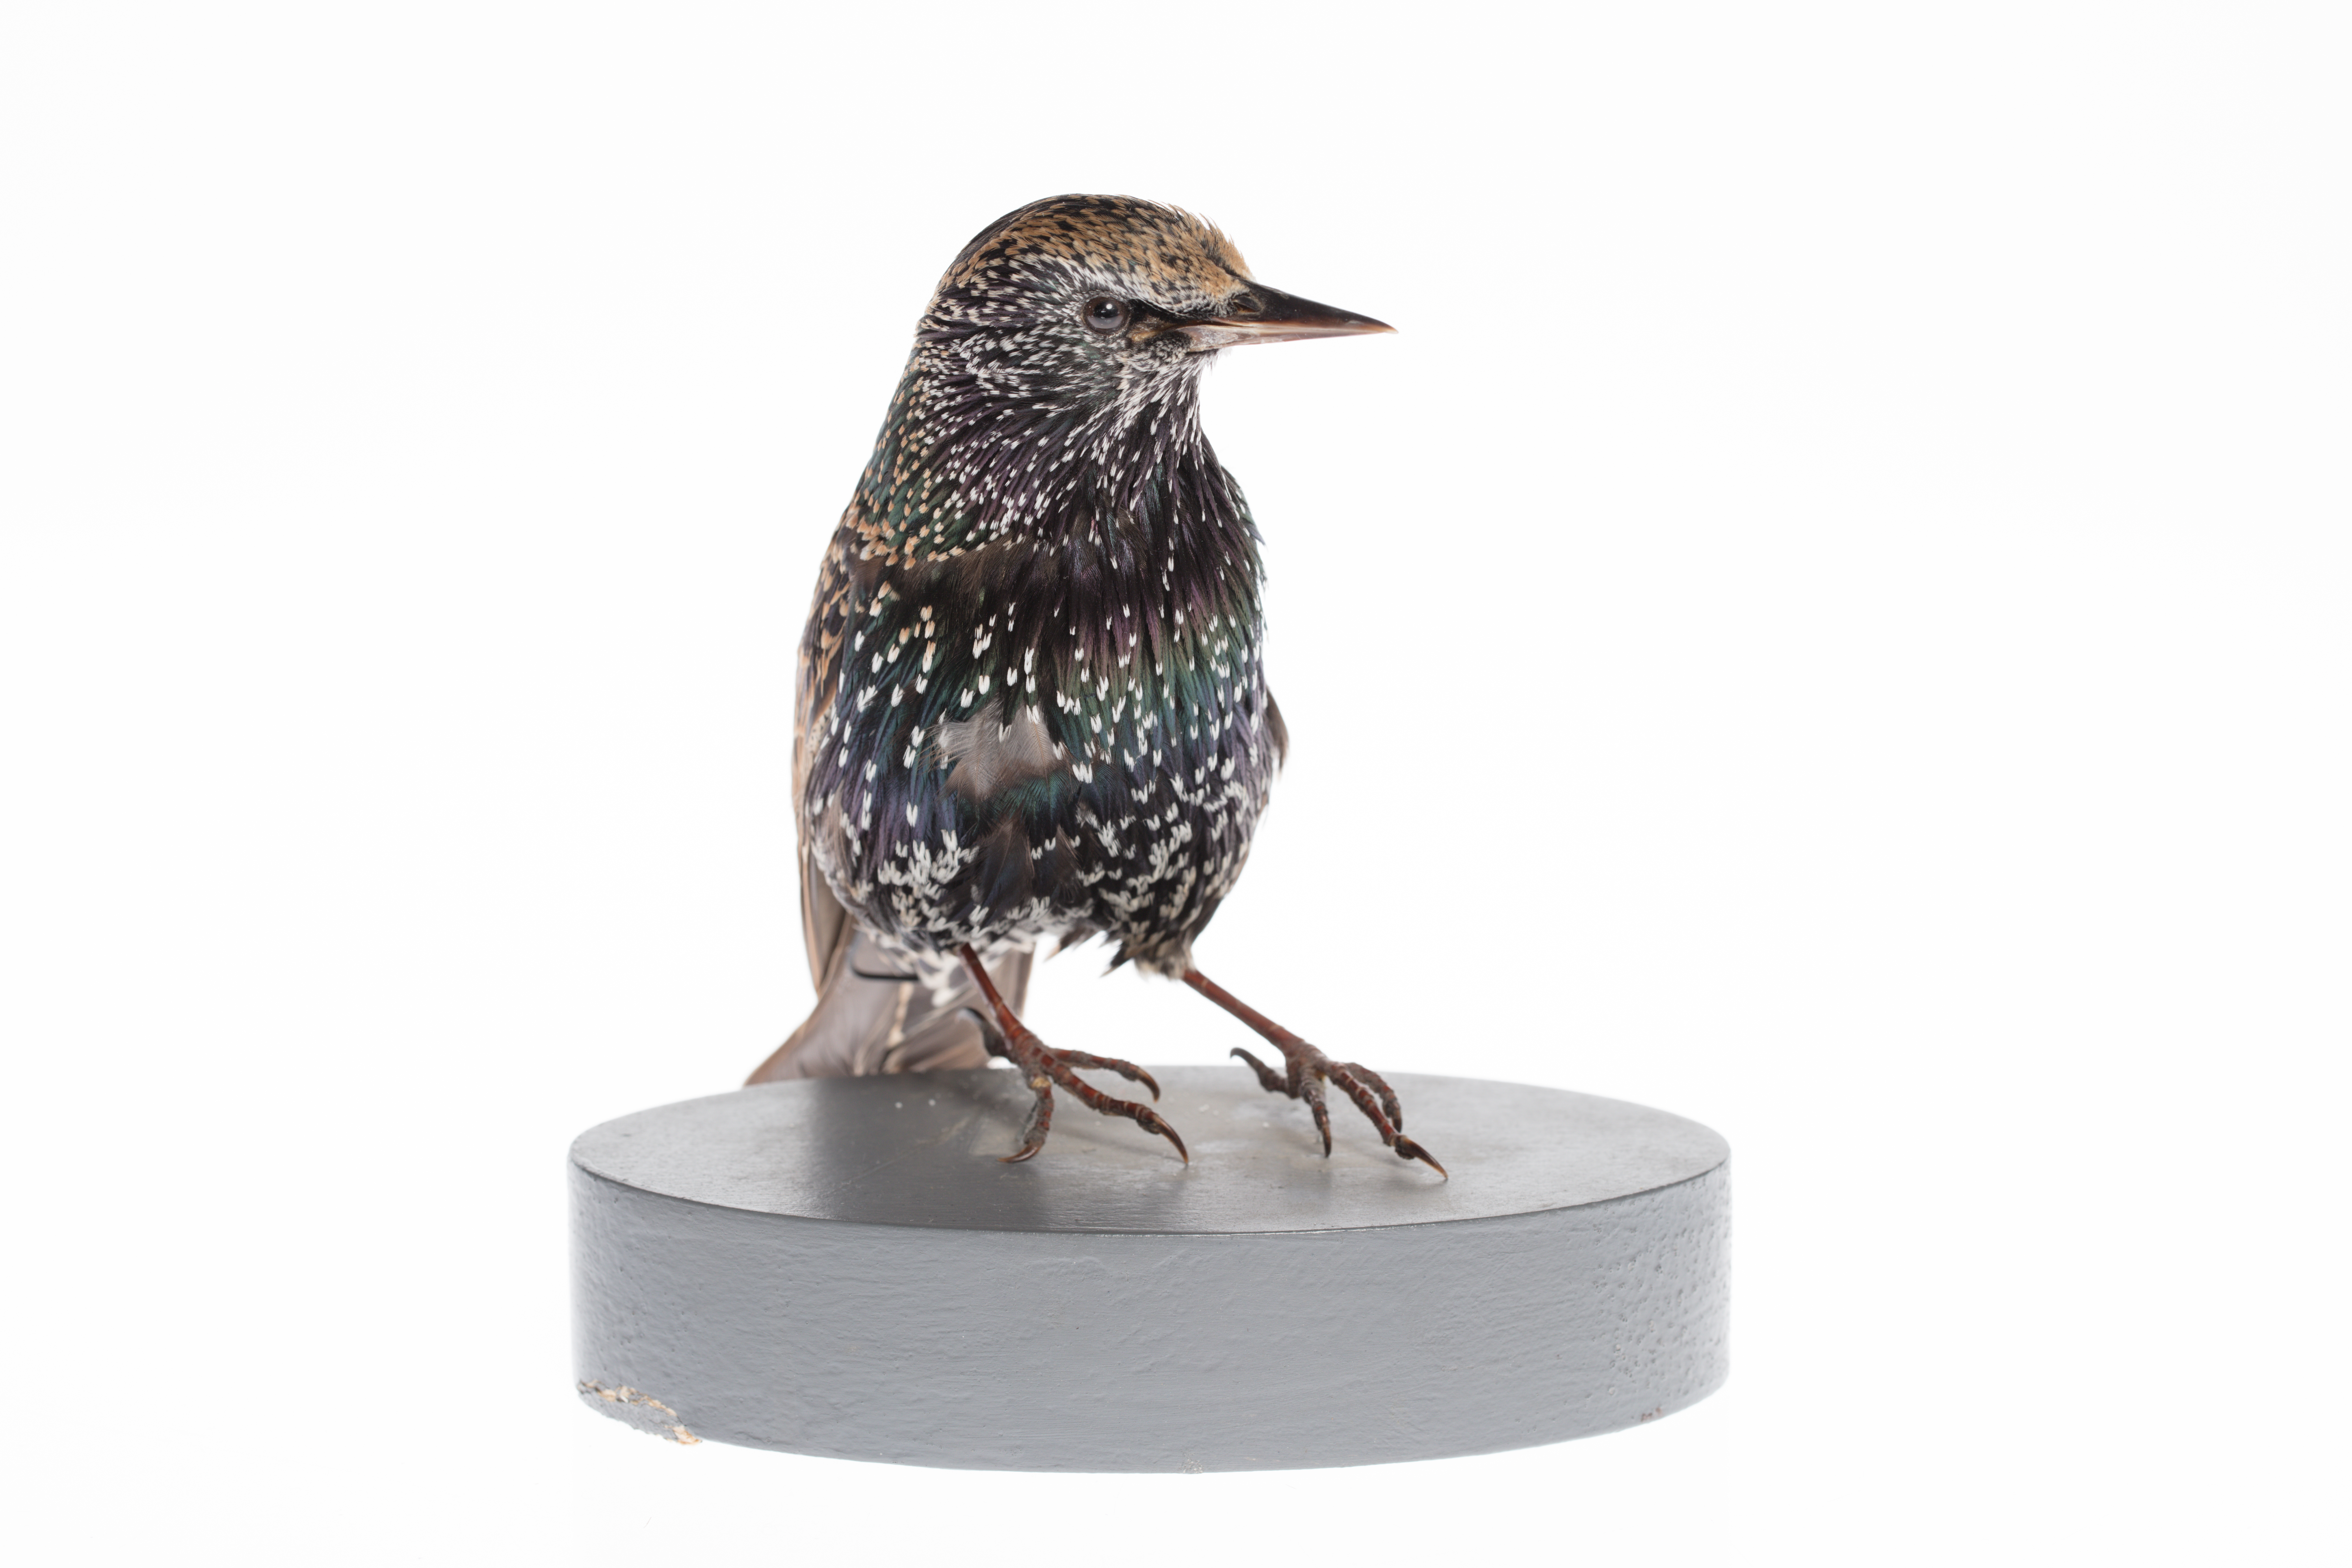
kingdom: Animalia
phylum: Chordata
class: Aves
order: Passeriformes
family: Sturnidae
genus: Sturnus
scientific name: Sturnus vulgaris
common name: Common starling
